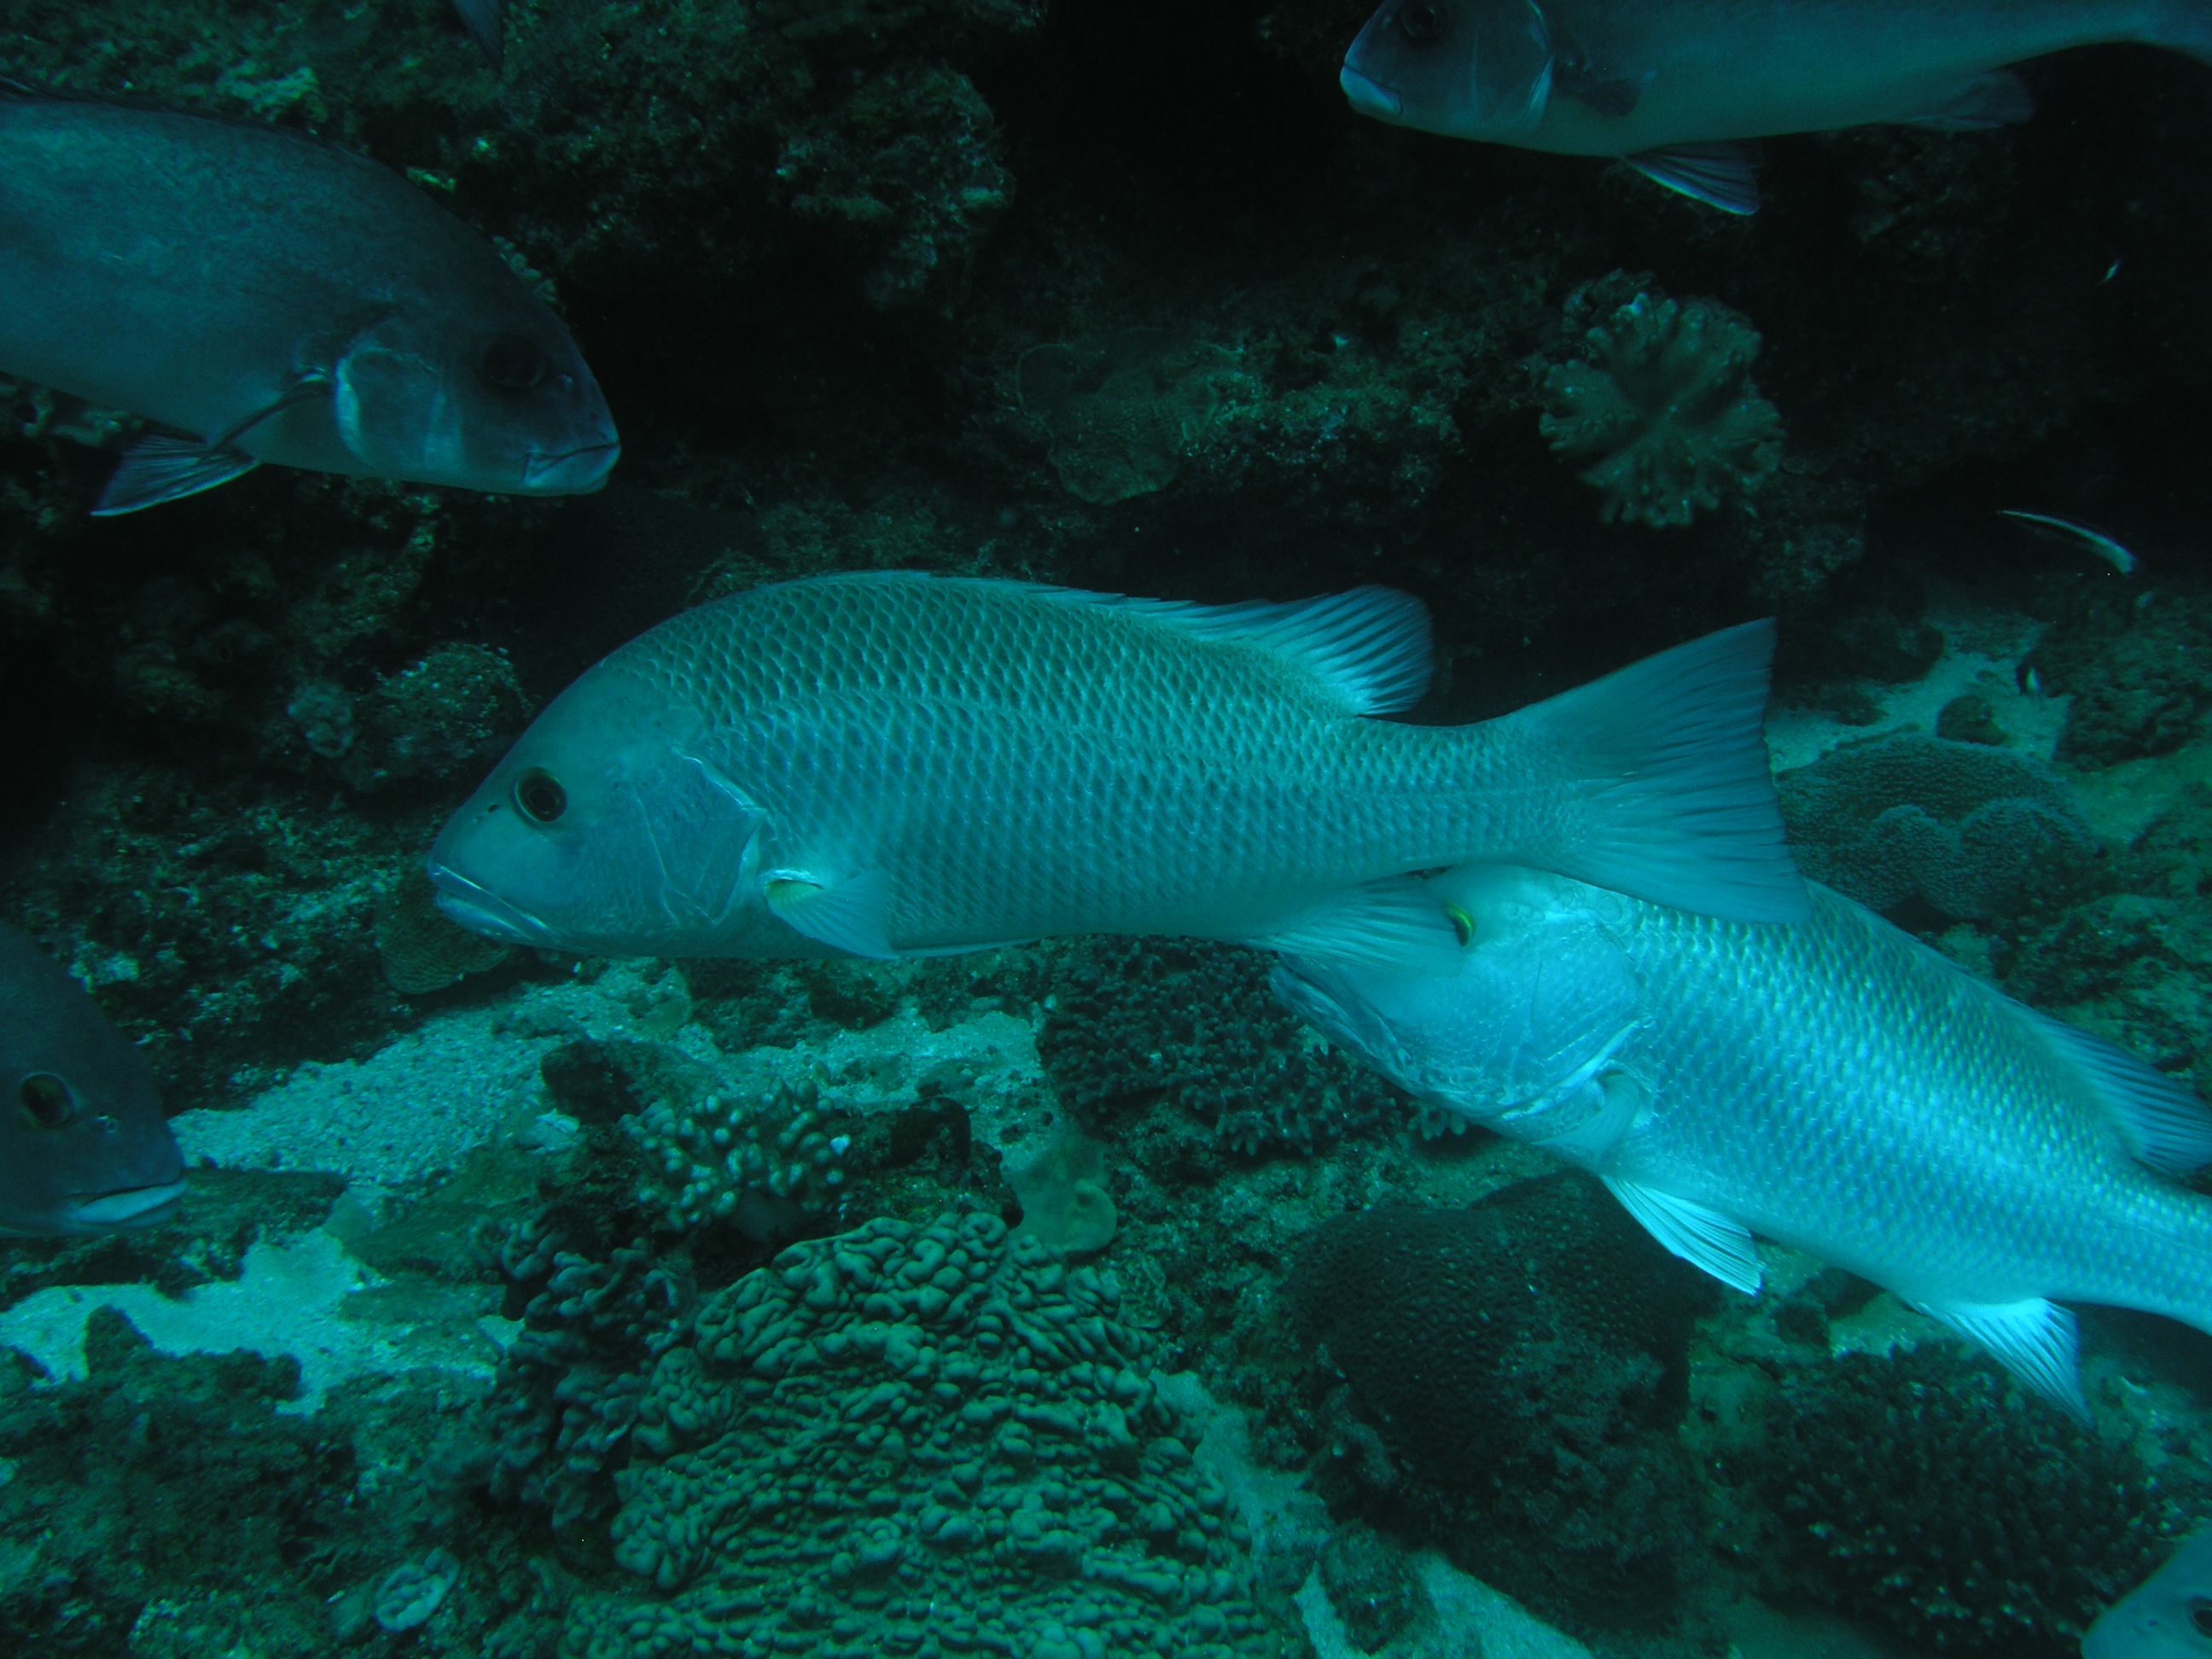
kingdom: Animalia
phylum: Chordata
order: Perciformes
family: Lutjanidae
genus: Lutjanus
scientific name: Lutjanus argentimaculatus
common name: Mangrove red snapper
